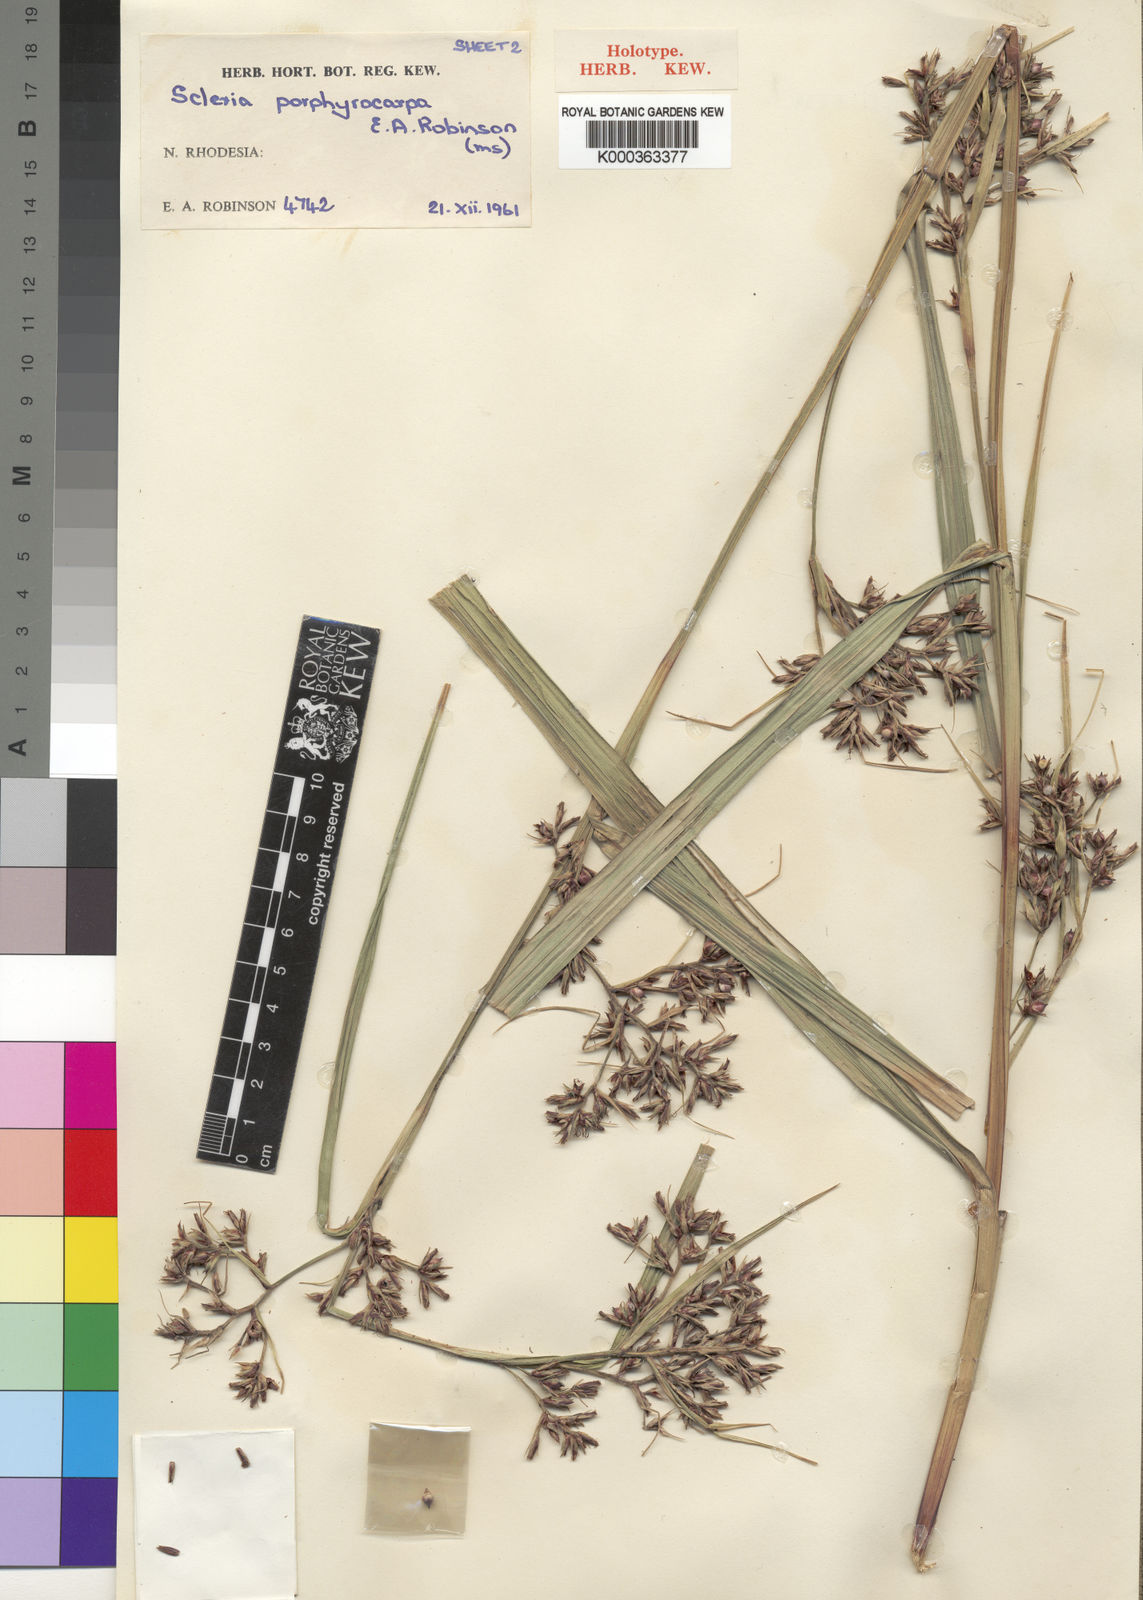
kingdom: Plantae
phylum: Tracheophyta
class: Liliopsida
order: Poales
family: Cyperaceae
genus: Scleria
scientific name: Scleria porphyrocarpa
